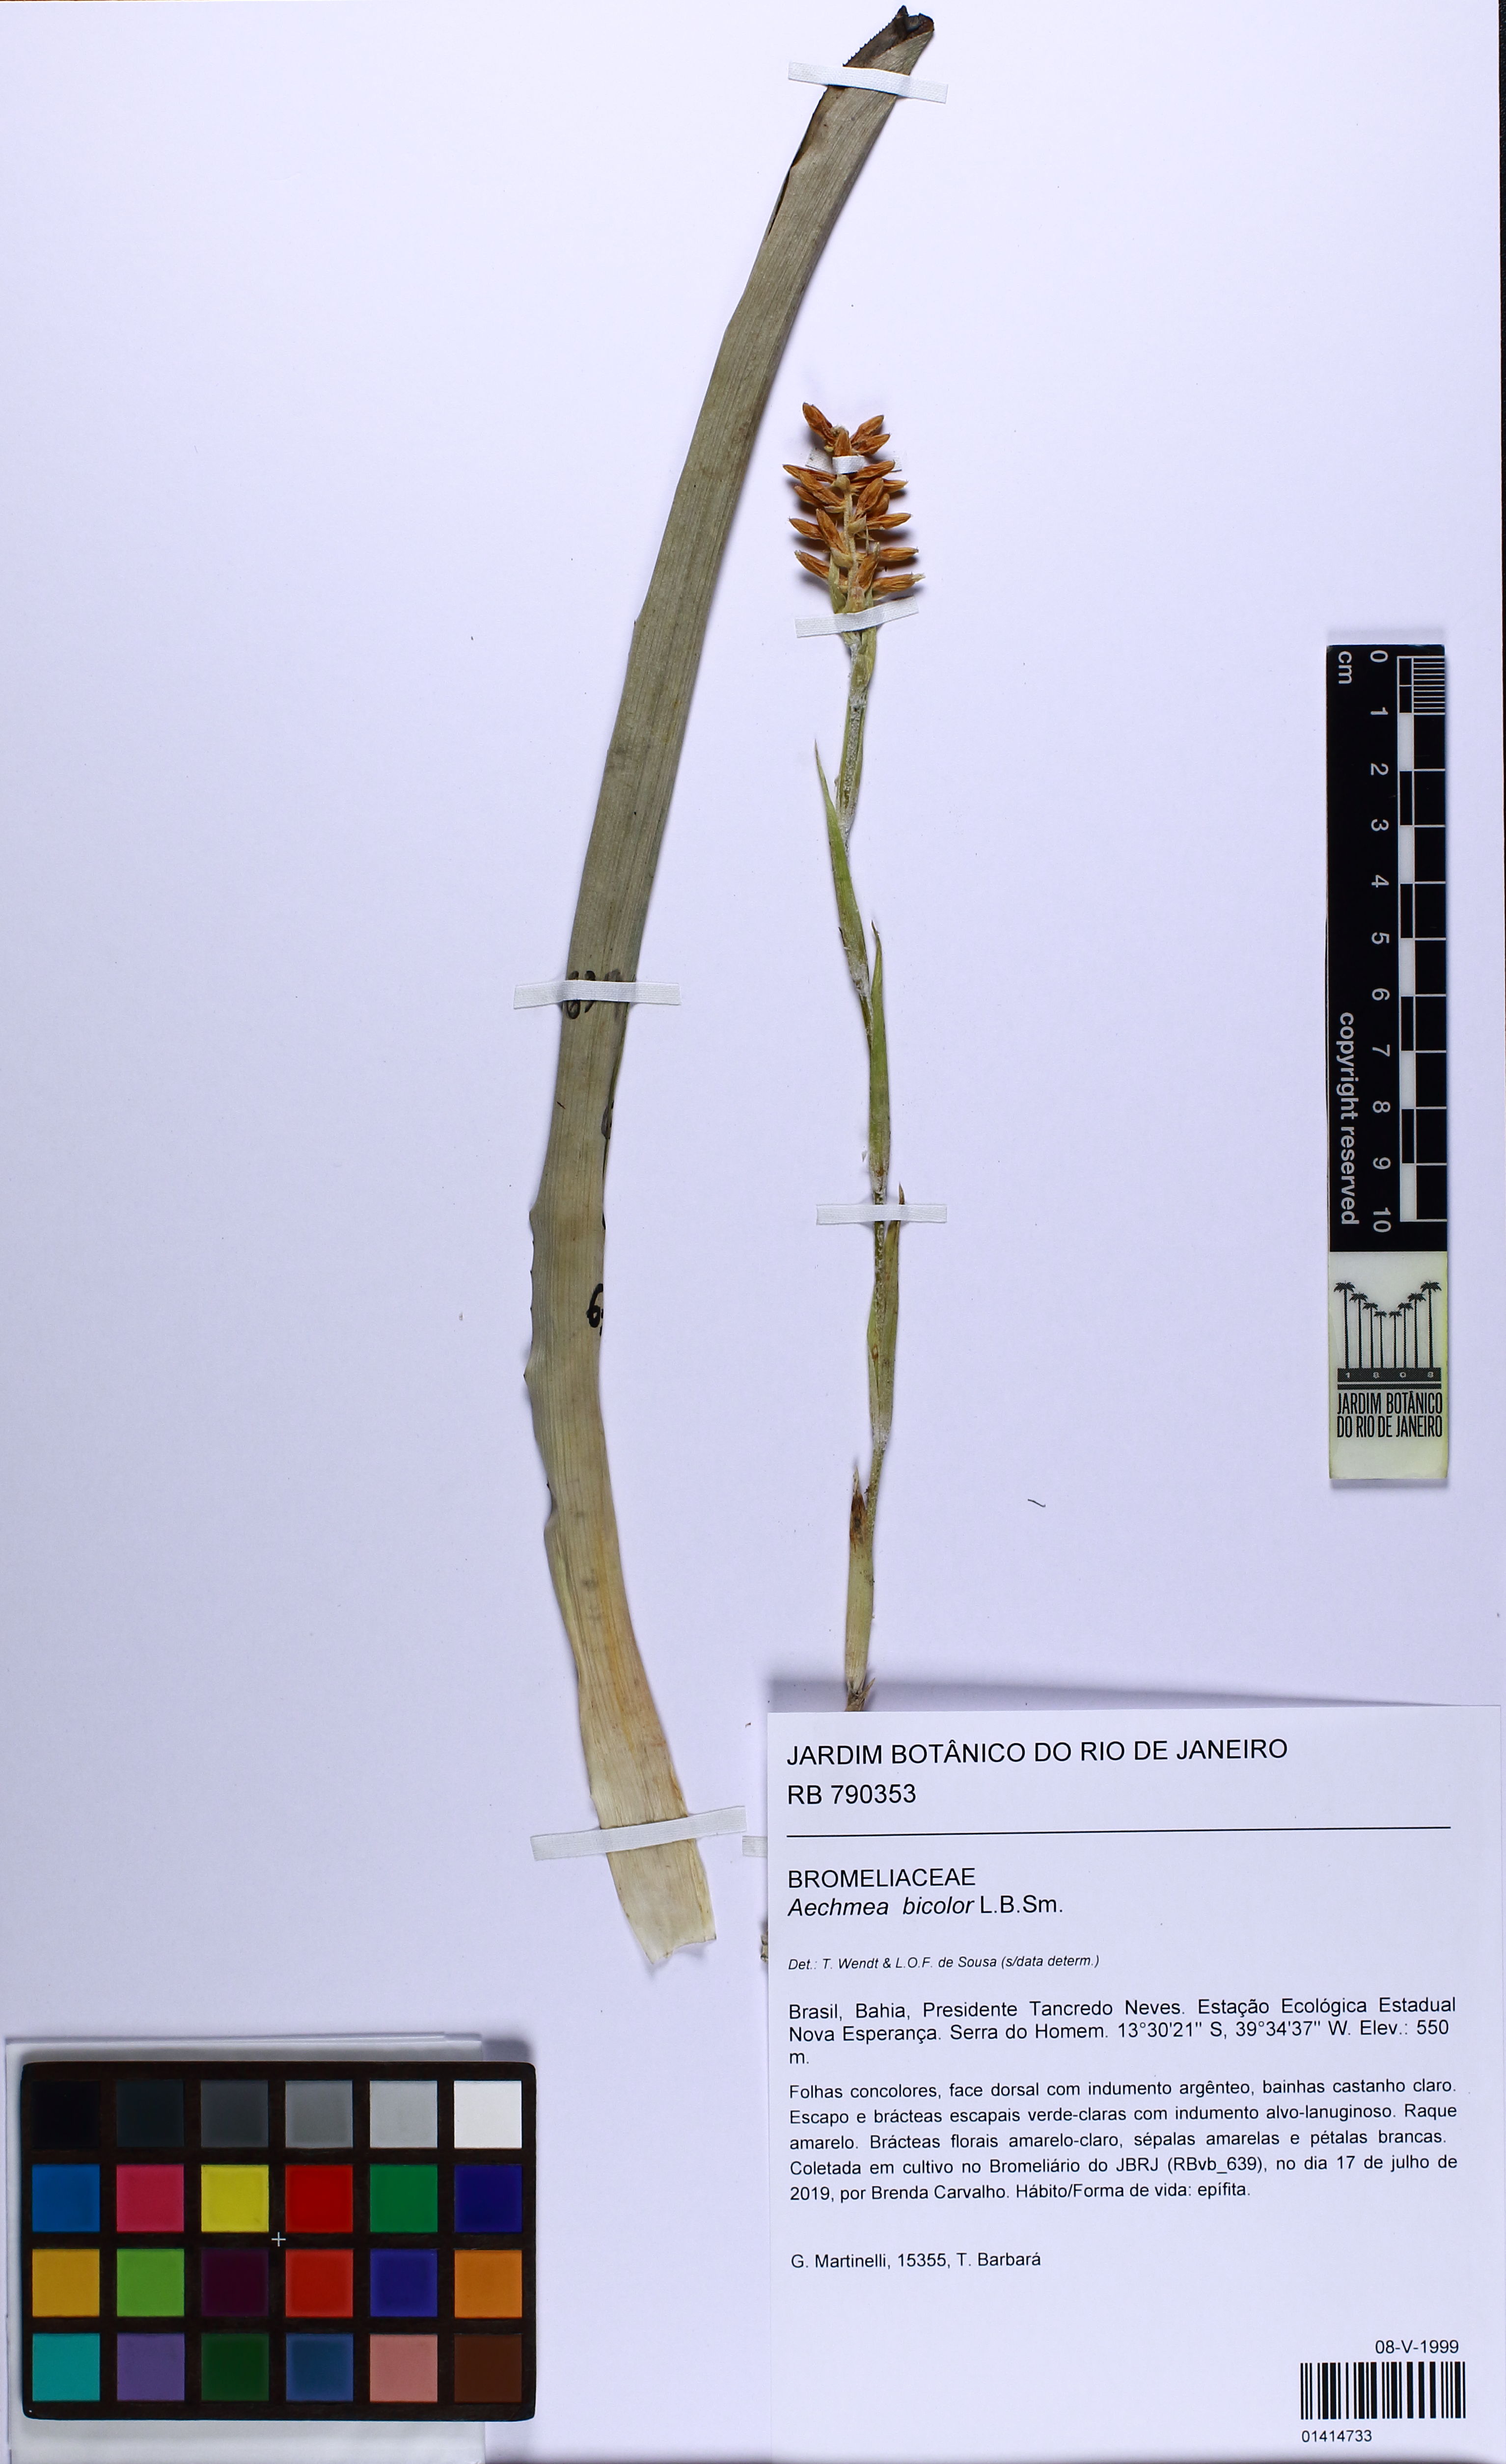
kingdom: Plantae
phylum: Tracheophyta
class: Liliopsida
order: Poales
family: Bromeliaceae
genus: Wittmackia
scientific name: Wittmackia bicolor
